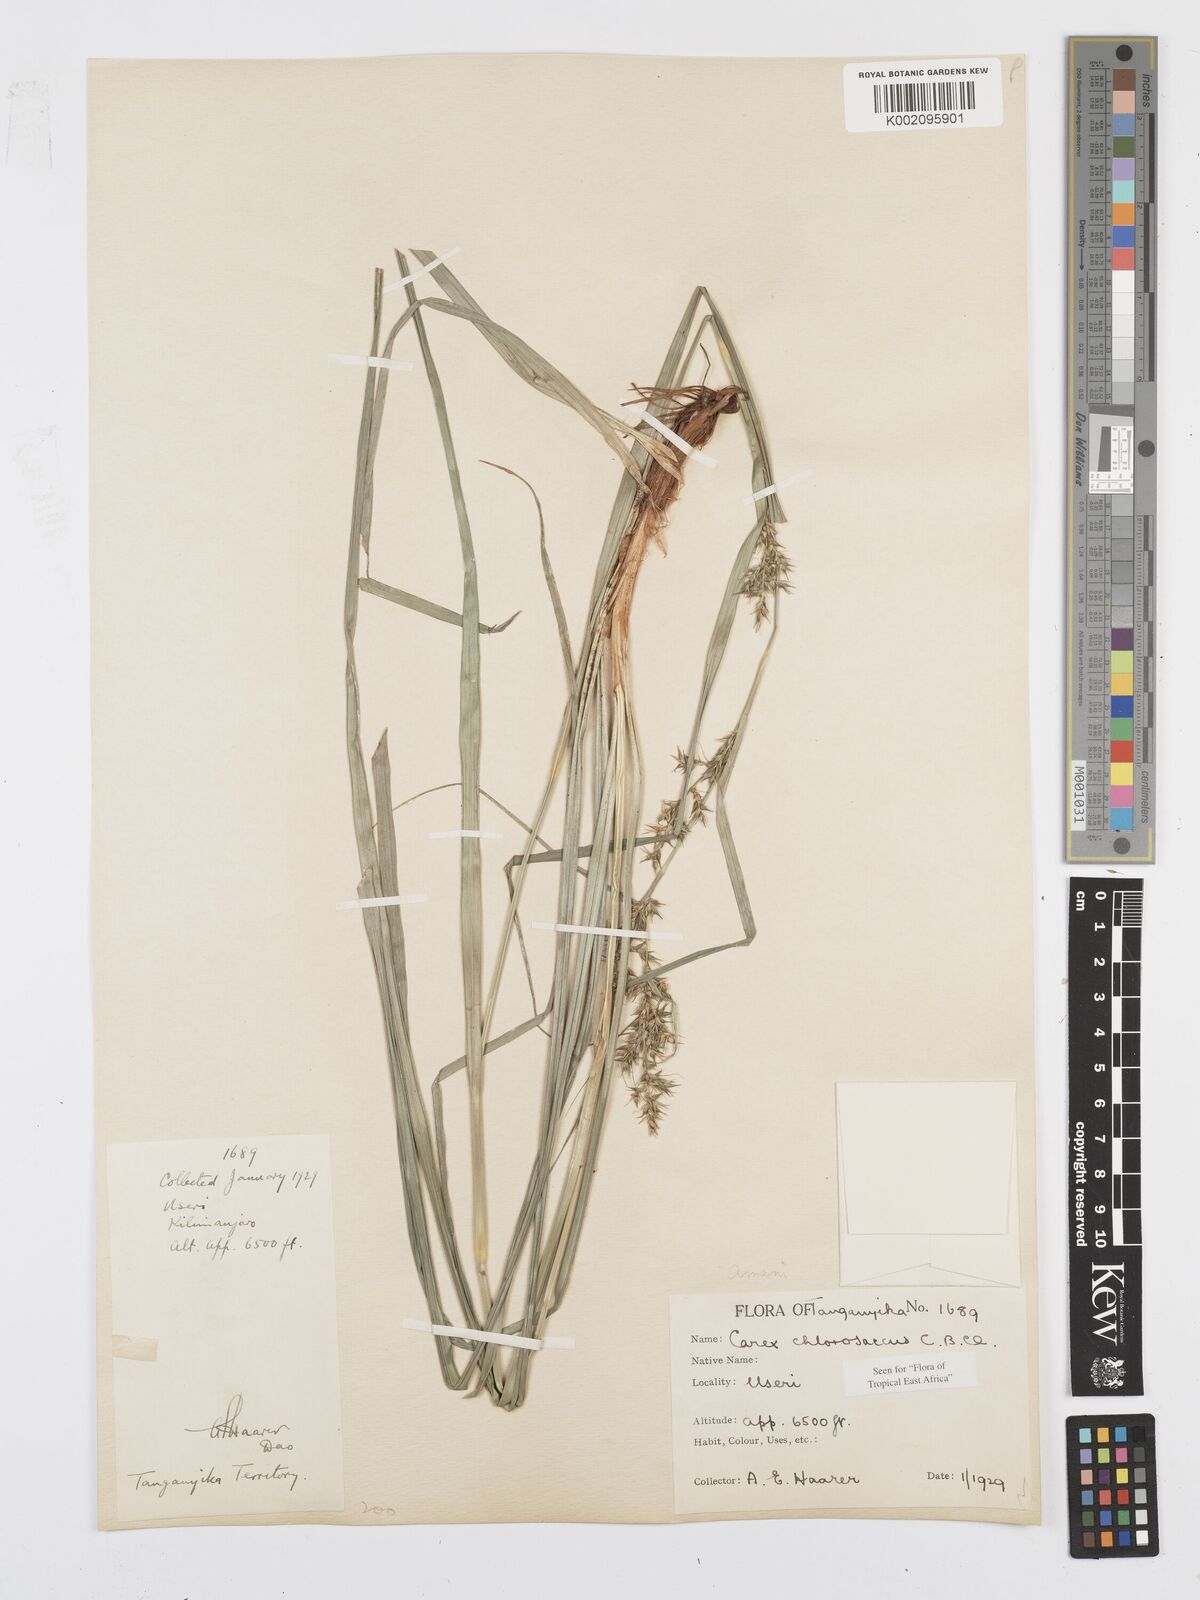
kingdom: Plantae
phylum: Tracheophyta
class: Liliopsida
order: Poales
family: Cyperaceae
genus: Carex
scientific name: Carex chlorosaccus
